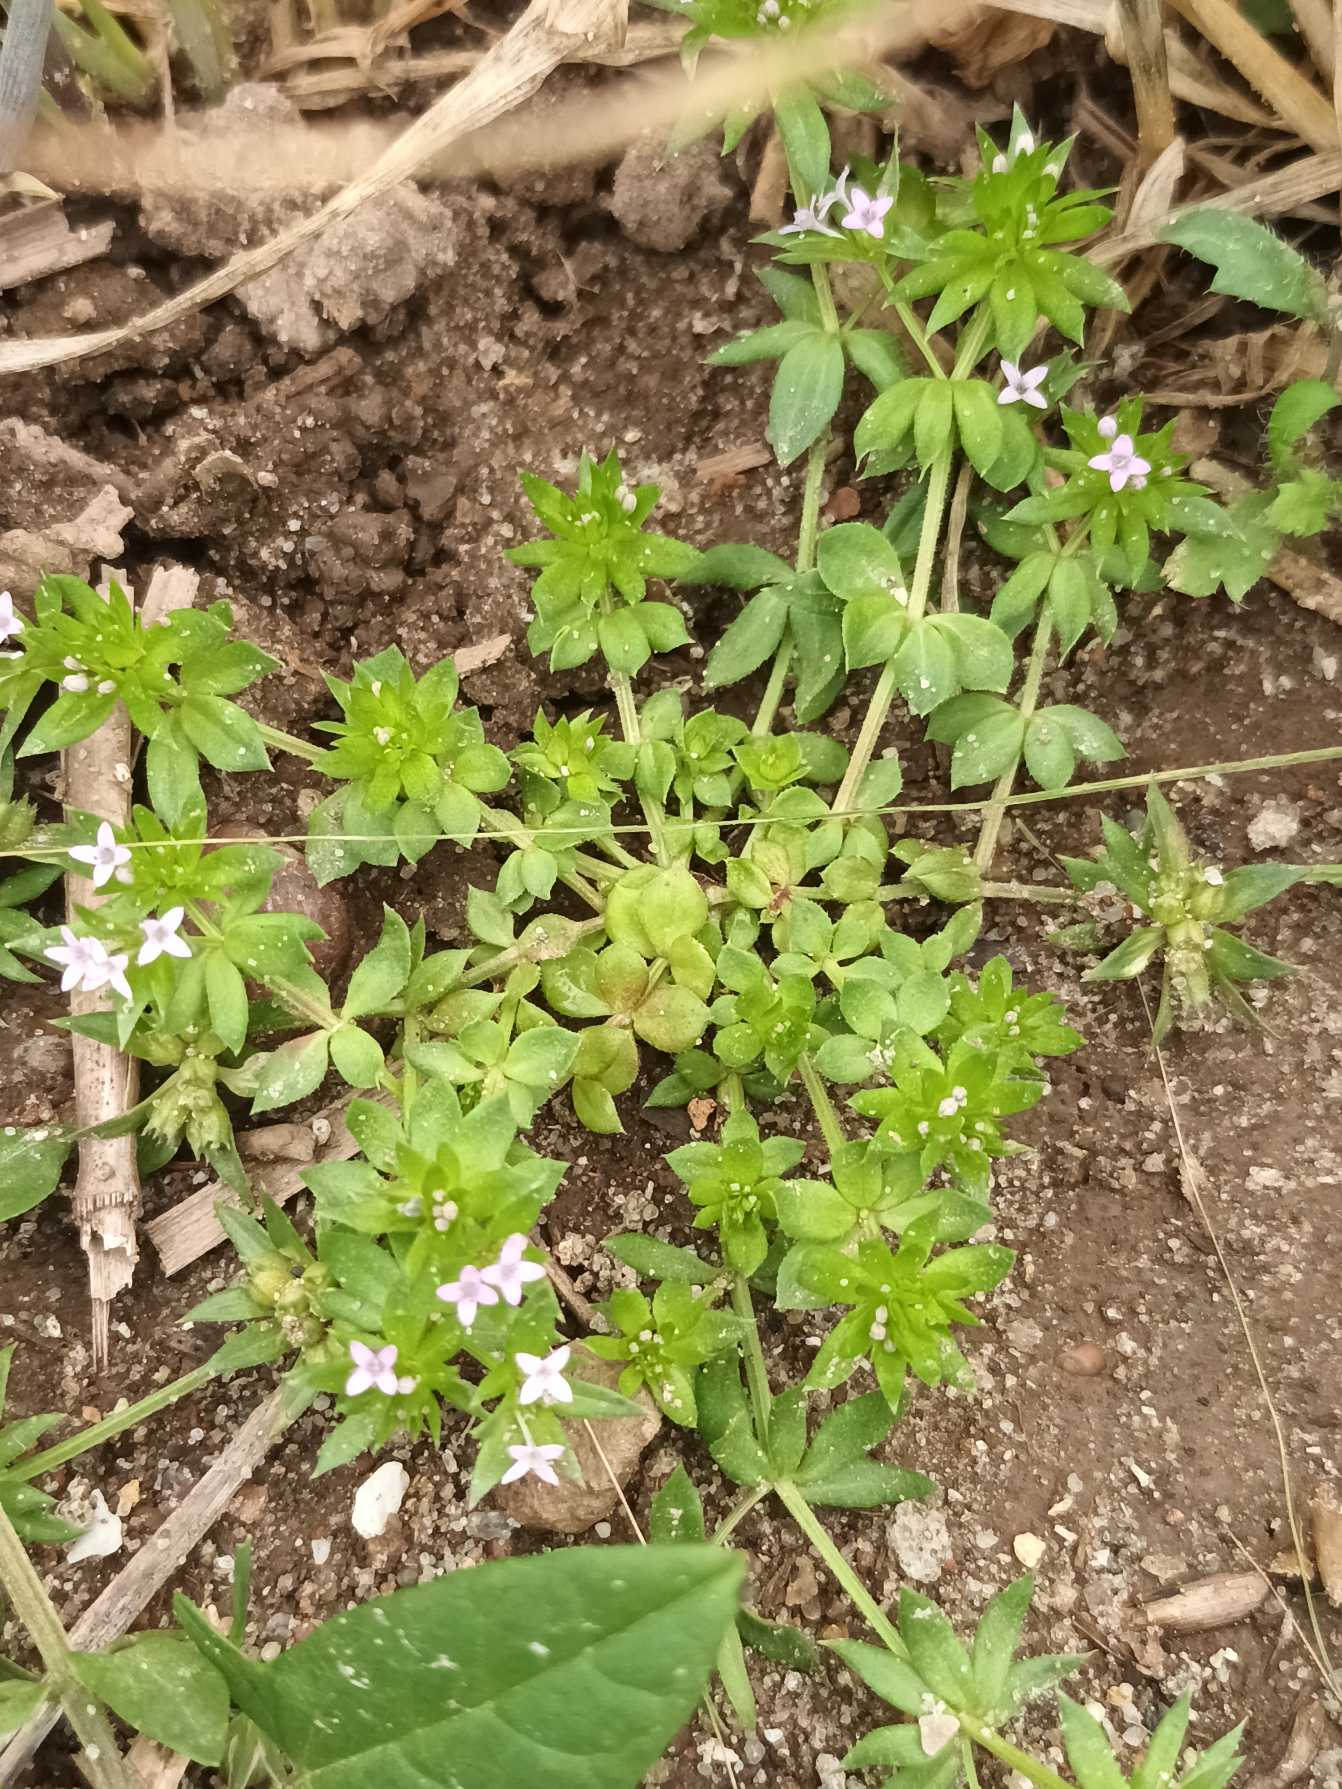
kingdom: Plantae
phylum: Tracheophyta
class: Magnoliopsida
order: Gentianales
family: Rubiaceae
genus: Sherardia
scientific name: Sherardia arvensis
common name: Blåstjerne
